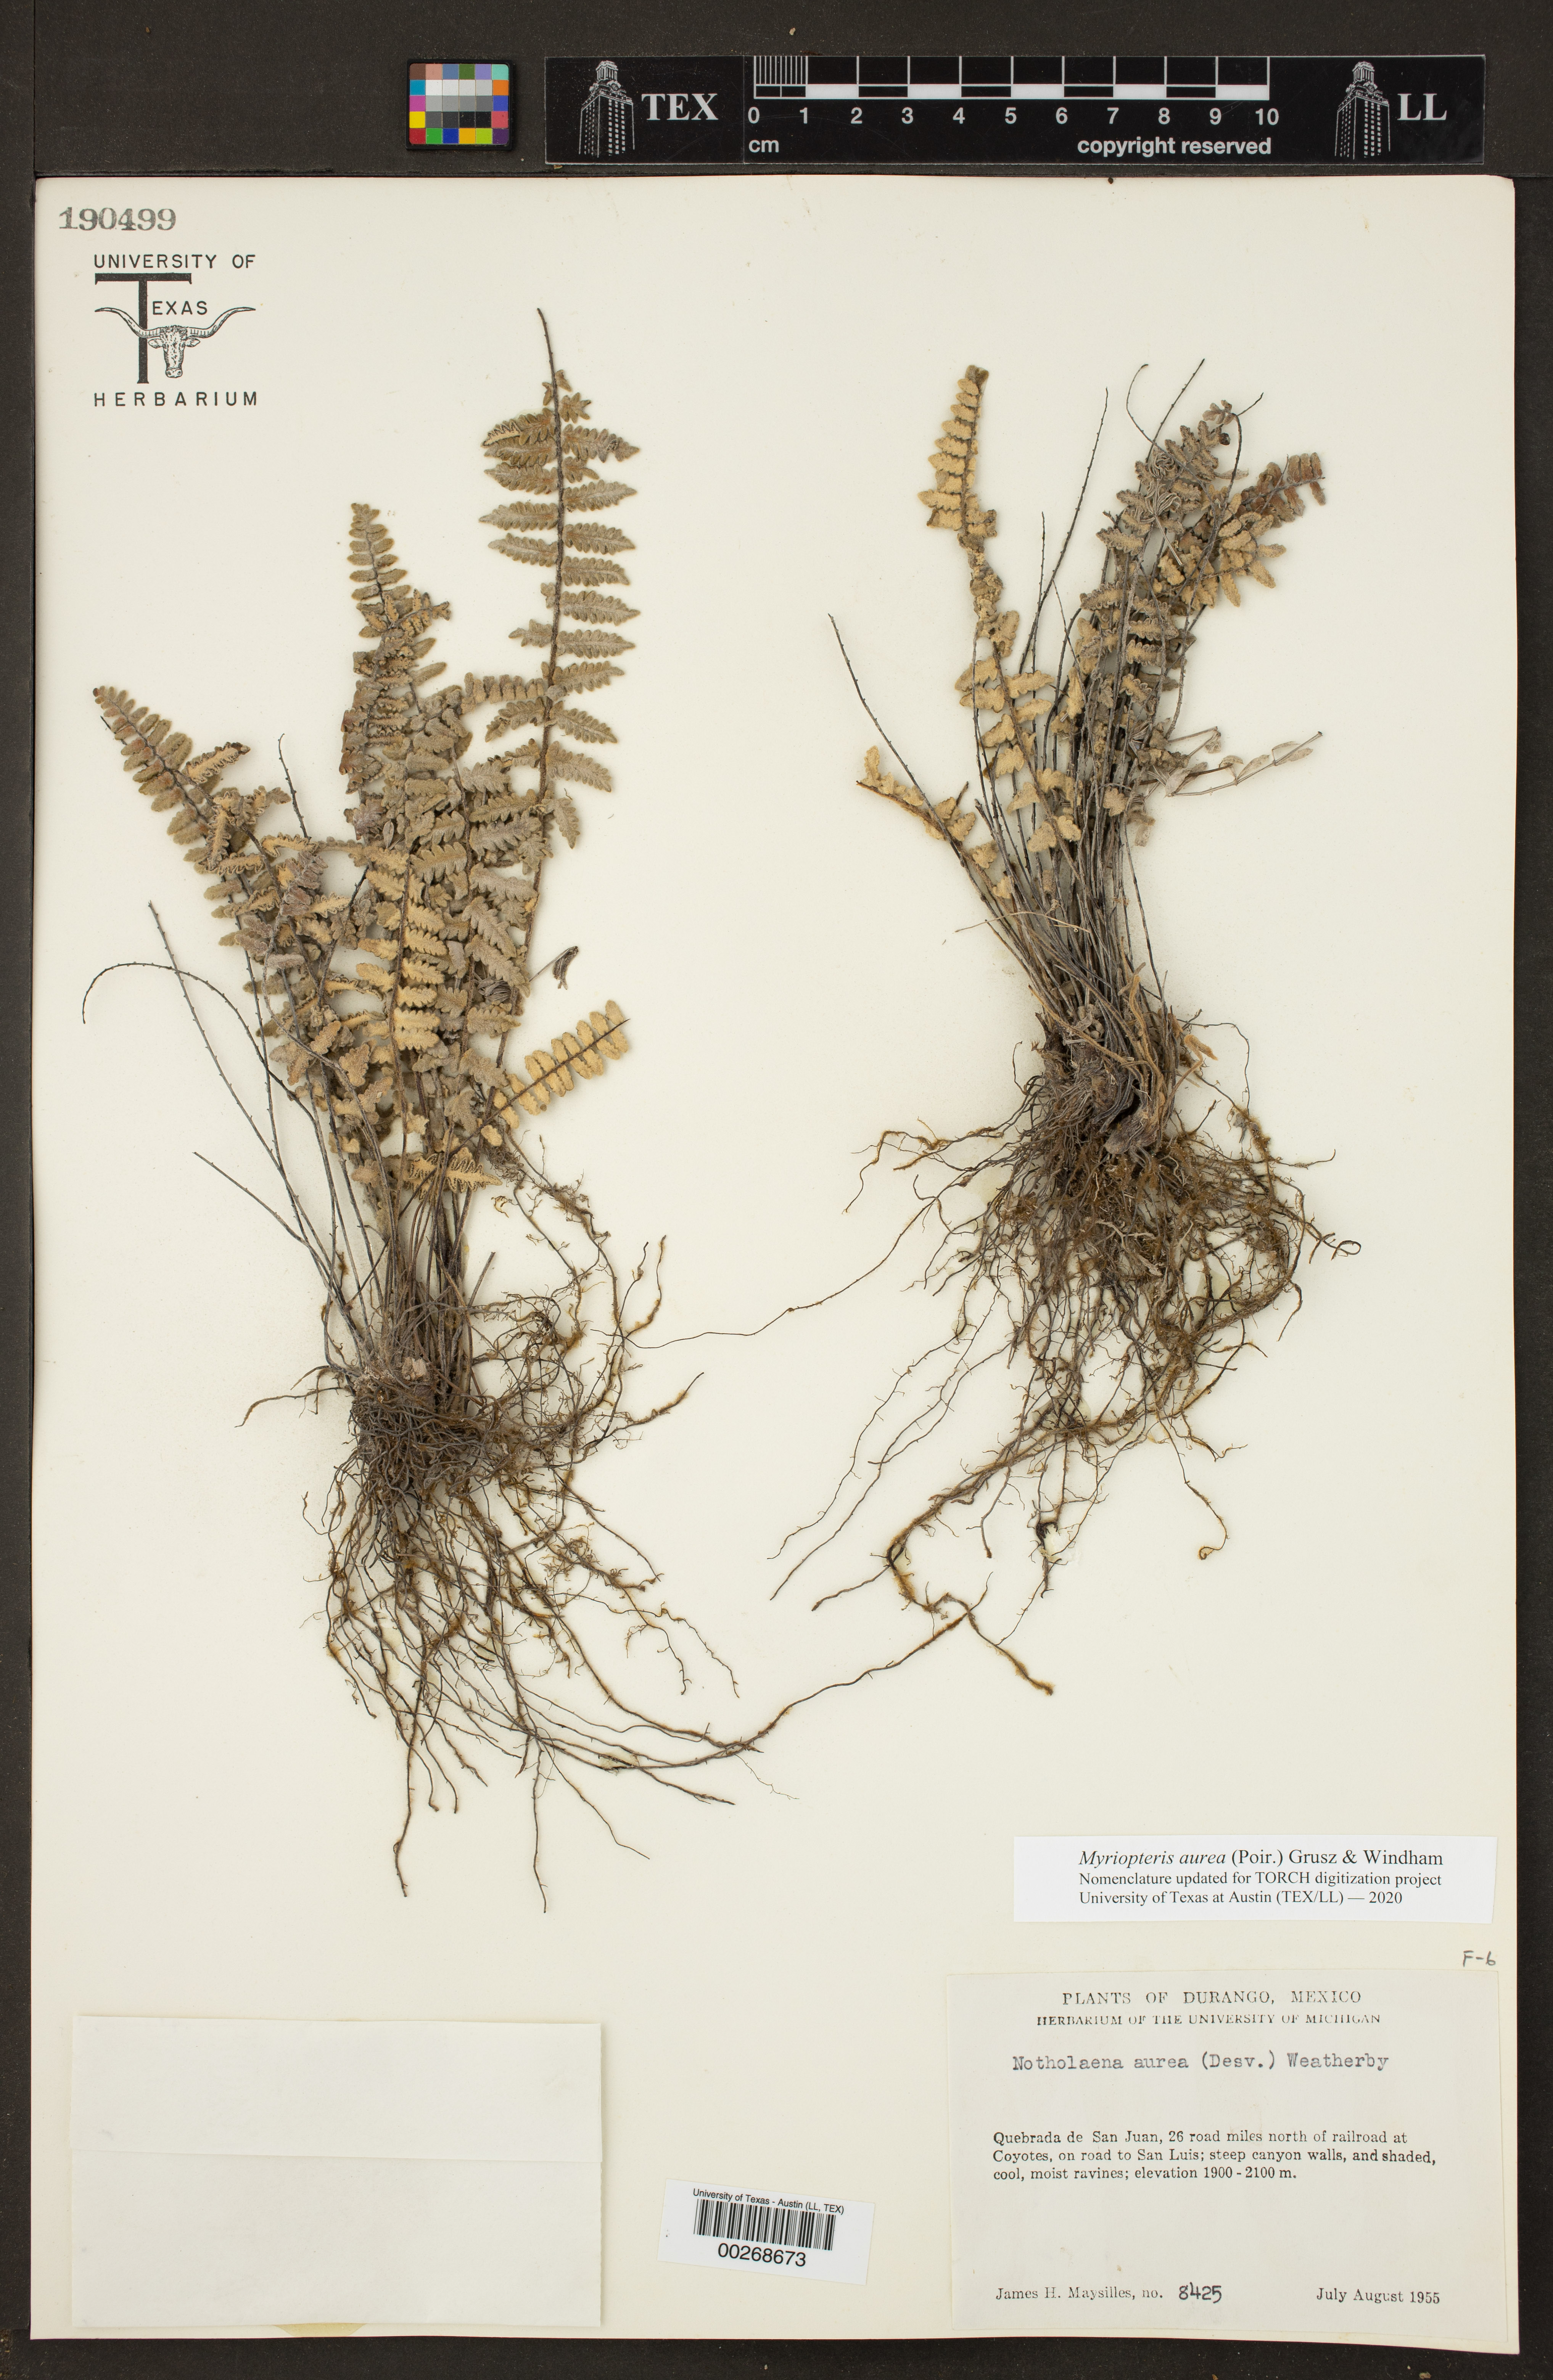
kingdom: Plantae
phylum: Tracheophyta
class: Polypodiopsida
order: Polypodiales
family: Pteridaceae
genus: Myriopteris
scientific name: Myriopteris aurea
